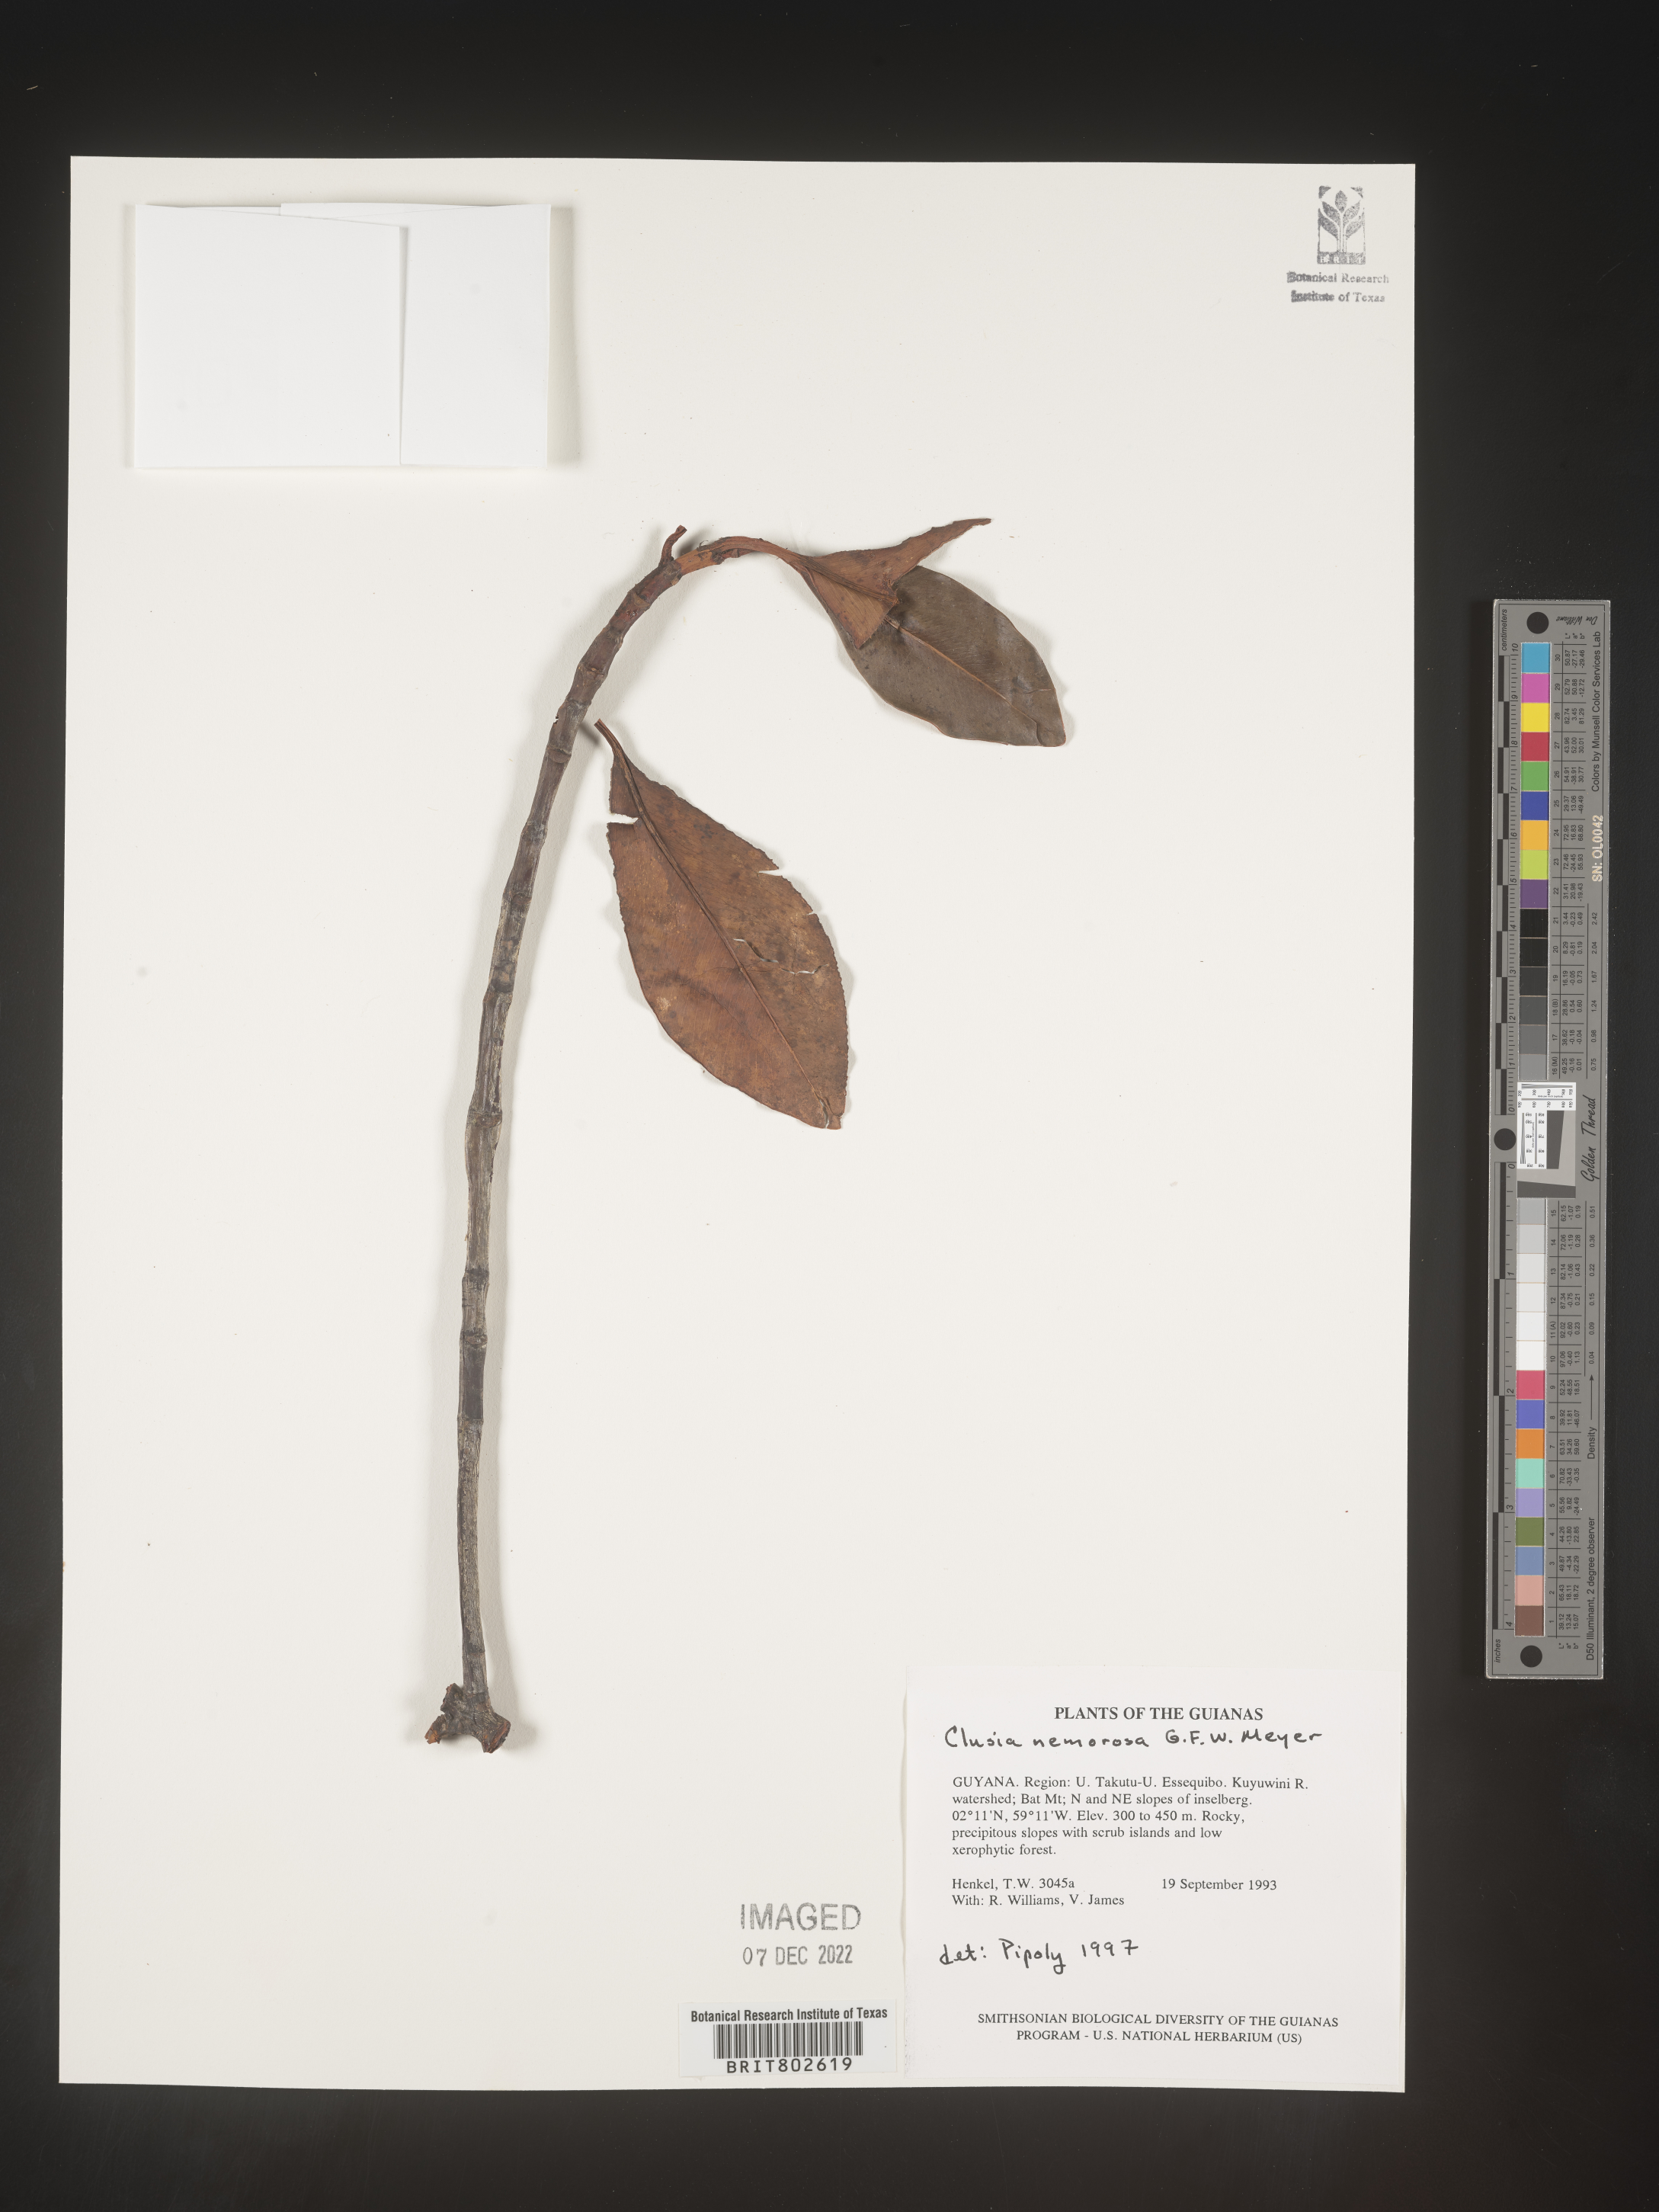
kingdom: Plantae
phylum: Tracheophyta
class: Magnoliopsida
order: Malpighiales
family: Clusiaceae
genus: Clusia
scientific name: Clusia nemorosa
